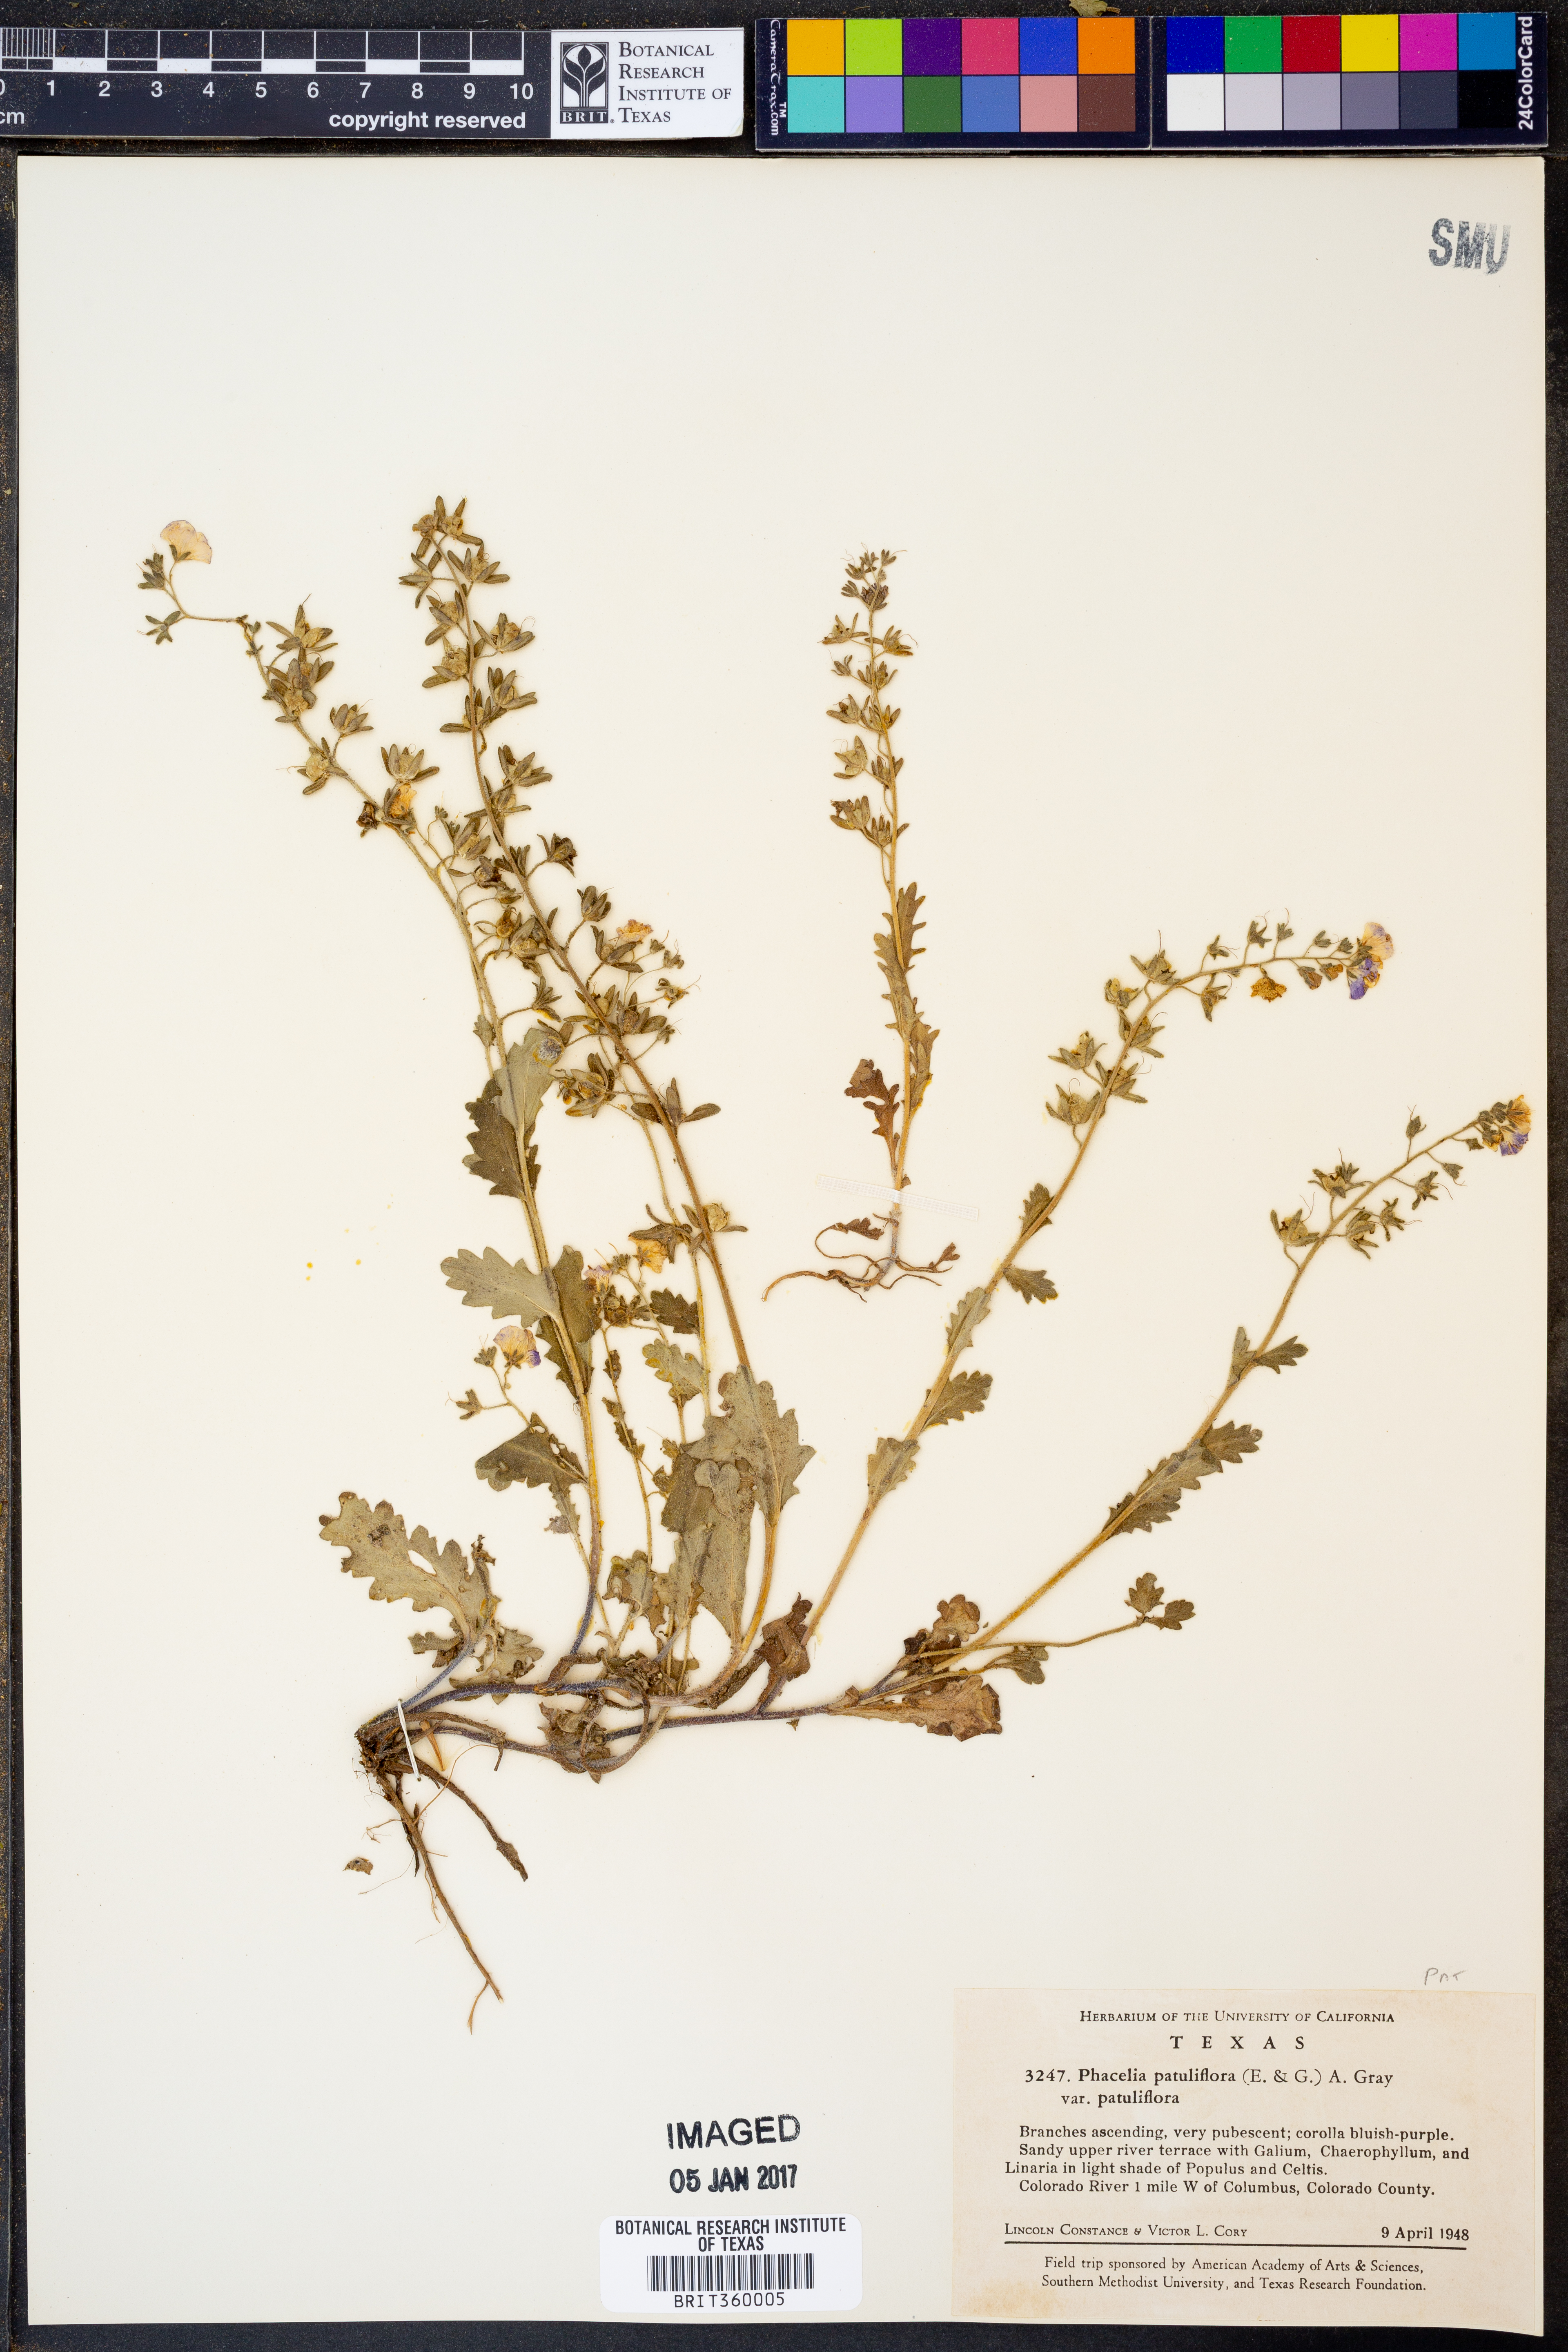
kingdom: Plantae
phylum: Tracheophyta
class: Magnoliopsida
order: Boraginales
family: Hydrophyllaceae
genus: Phacelia
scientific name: Phacelia patuliflora
